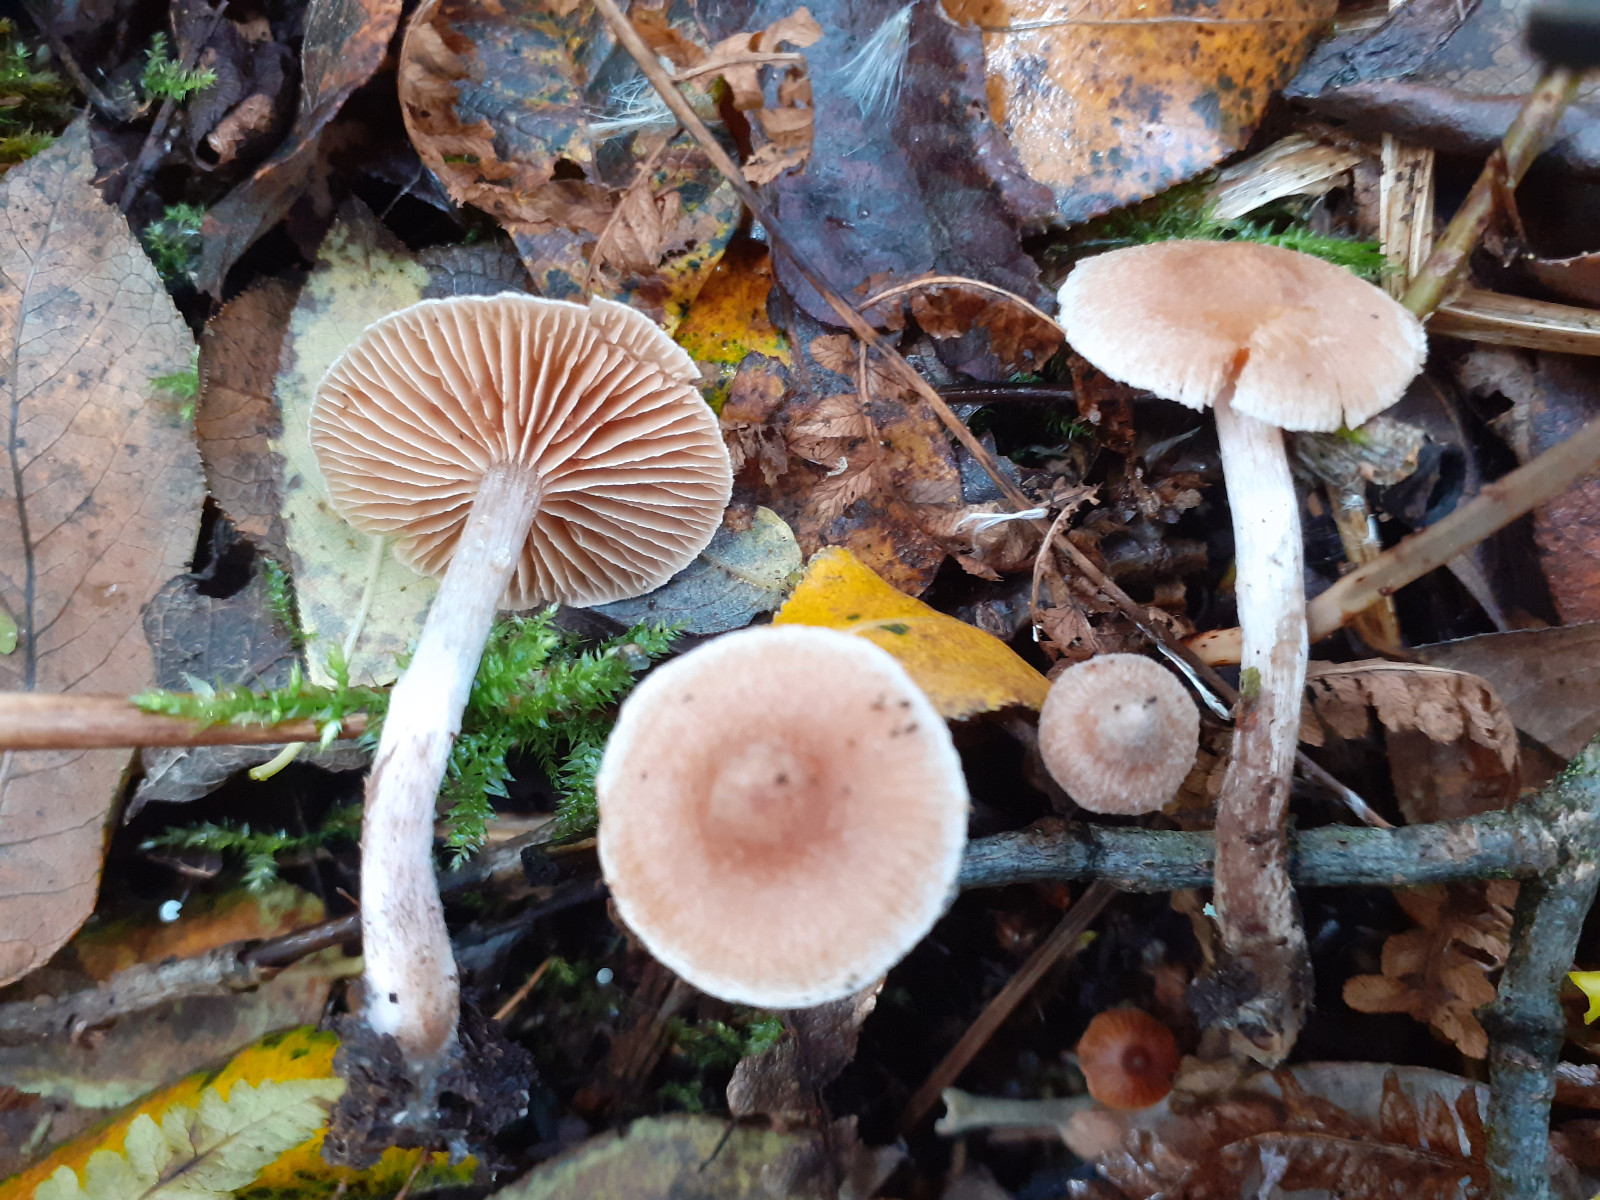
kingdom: Fungi
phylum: Basidiomycota
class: Agaricomycetes
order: Agaricales
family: Cortinariaceae
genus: Cortinarius
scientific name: Cortinarius expallens
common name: bomulds-slørhat
